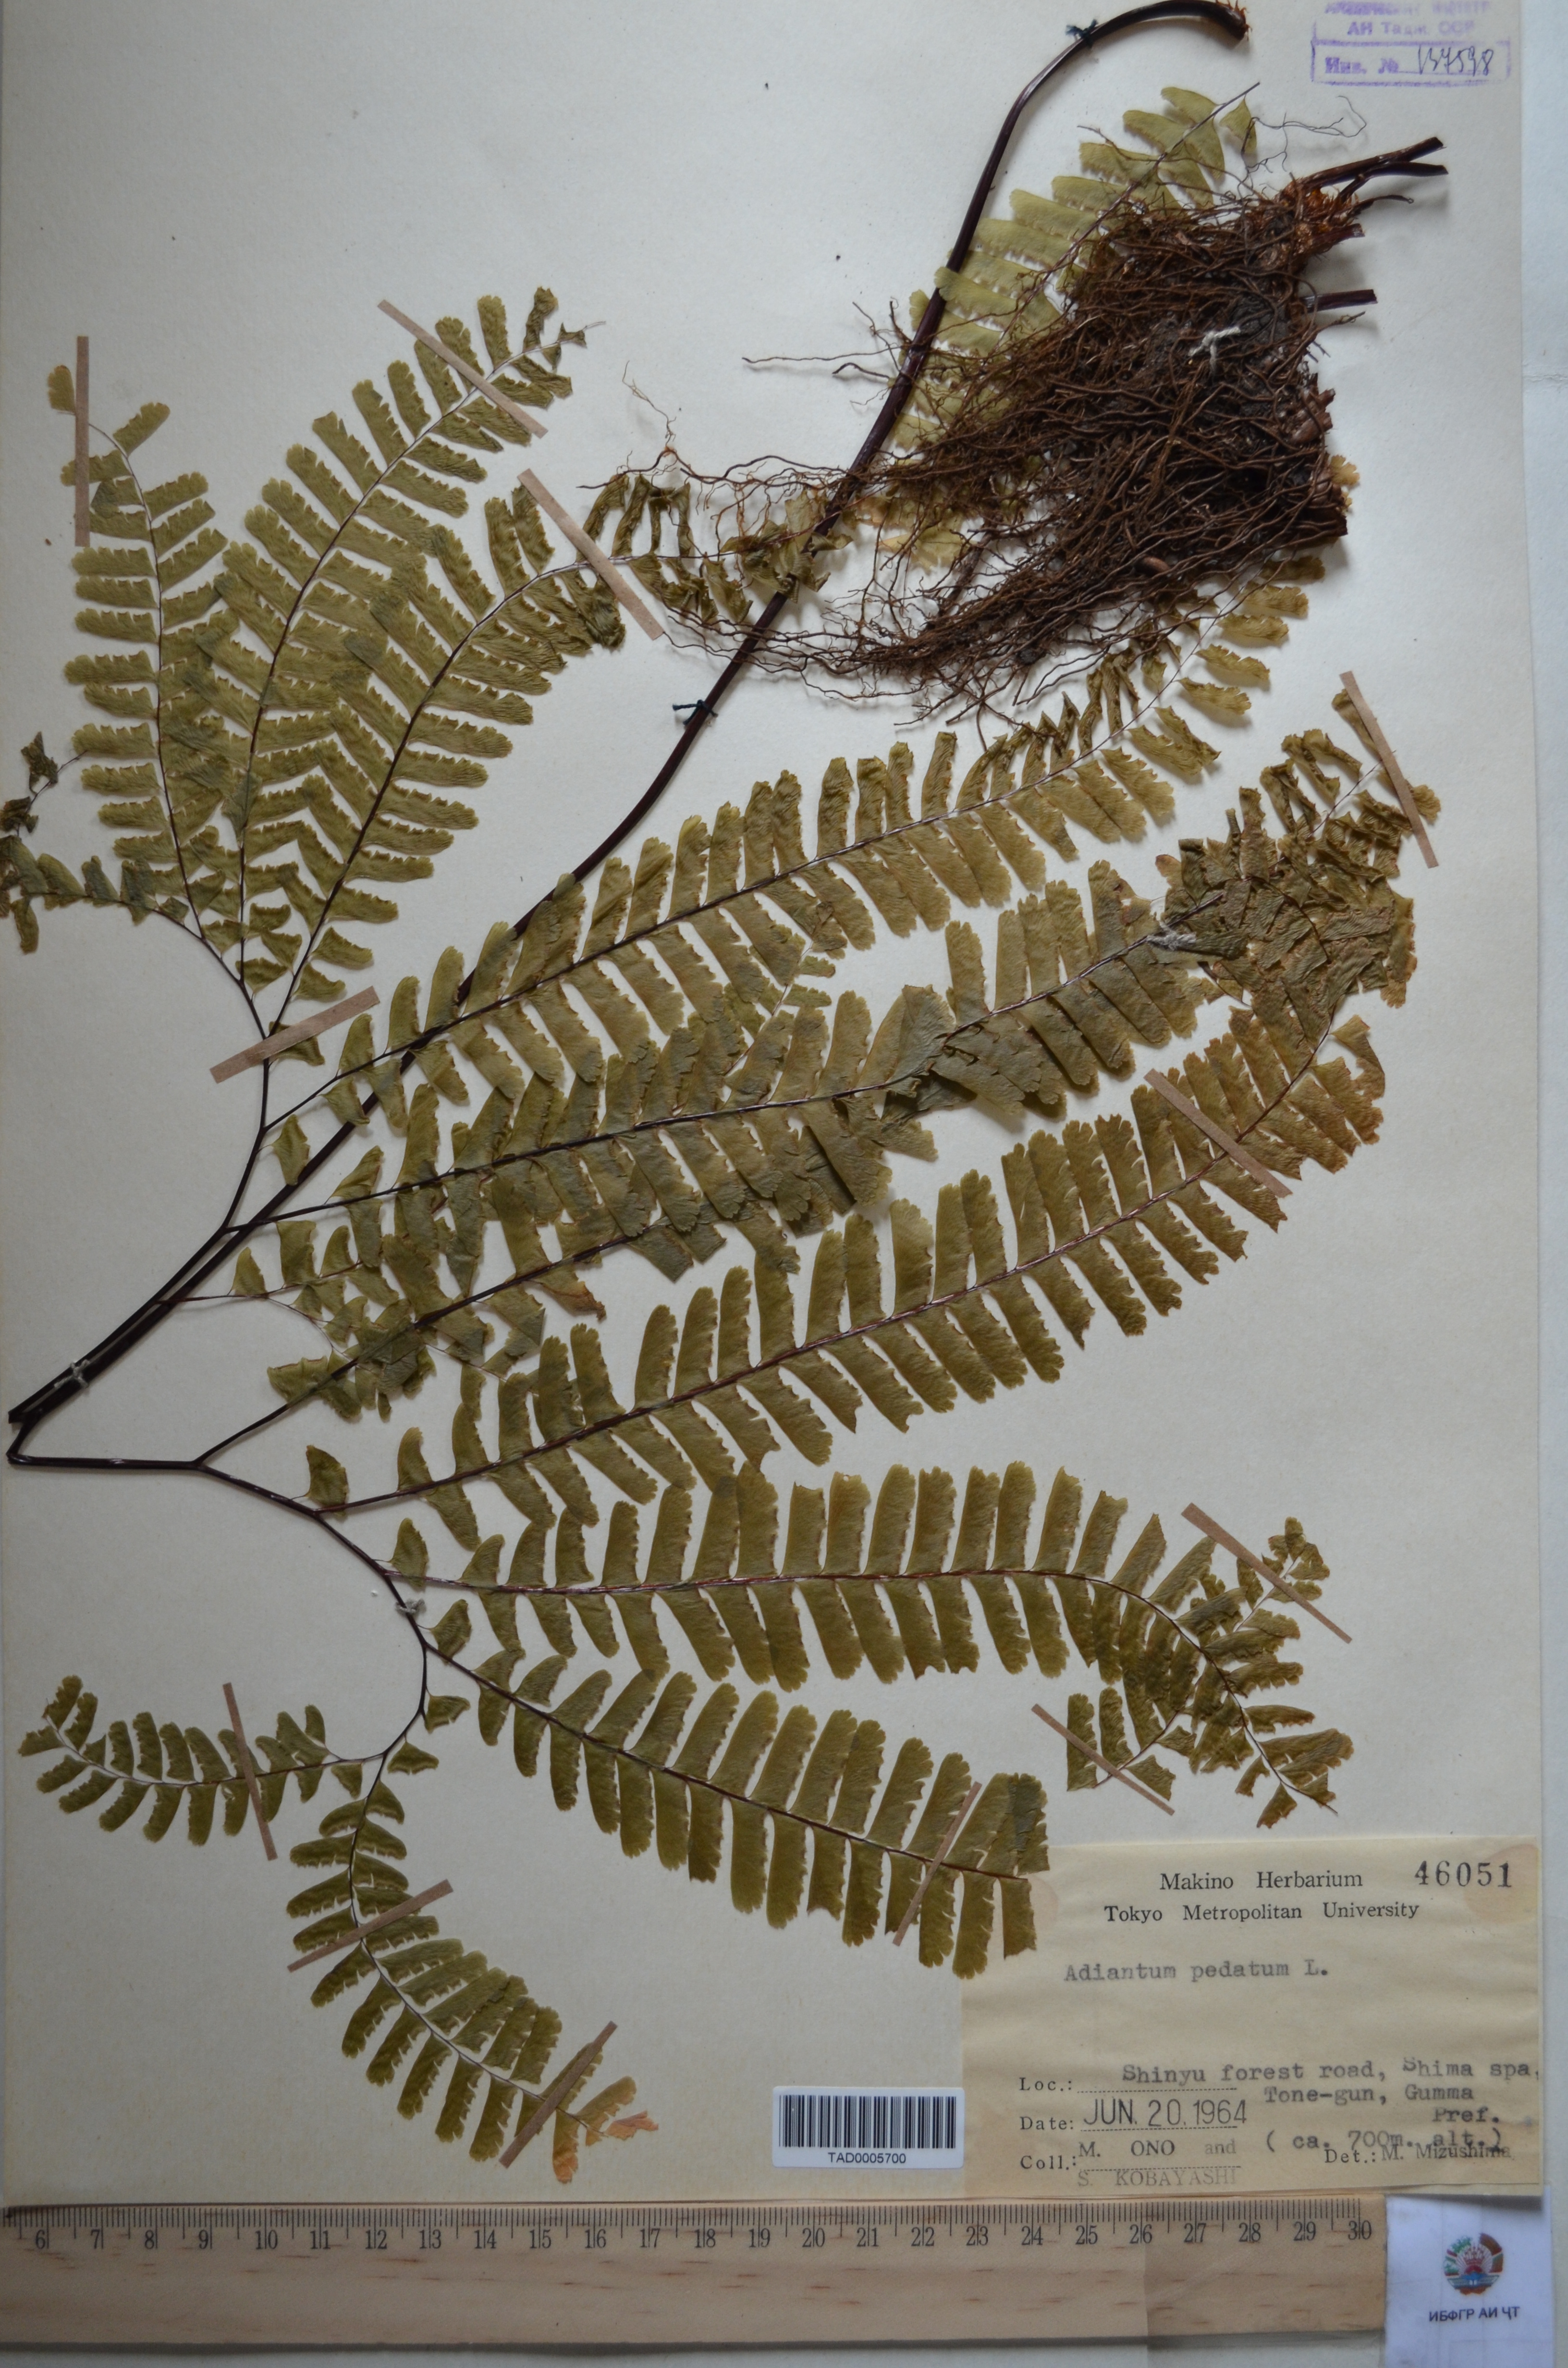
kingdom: Plantae
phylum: Tracheophyta
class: Polypodiopsida
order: Polypodiales
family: Pteridaceae
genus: Adiantum
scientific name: Adiantum pedatum
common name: Five-finger fern
